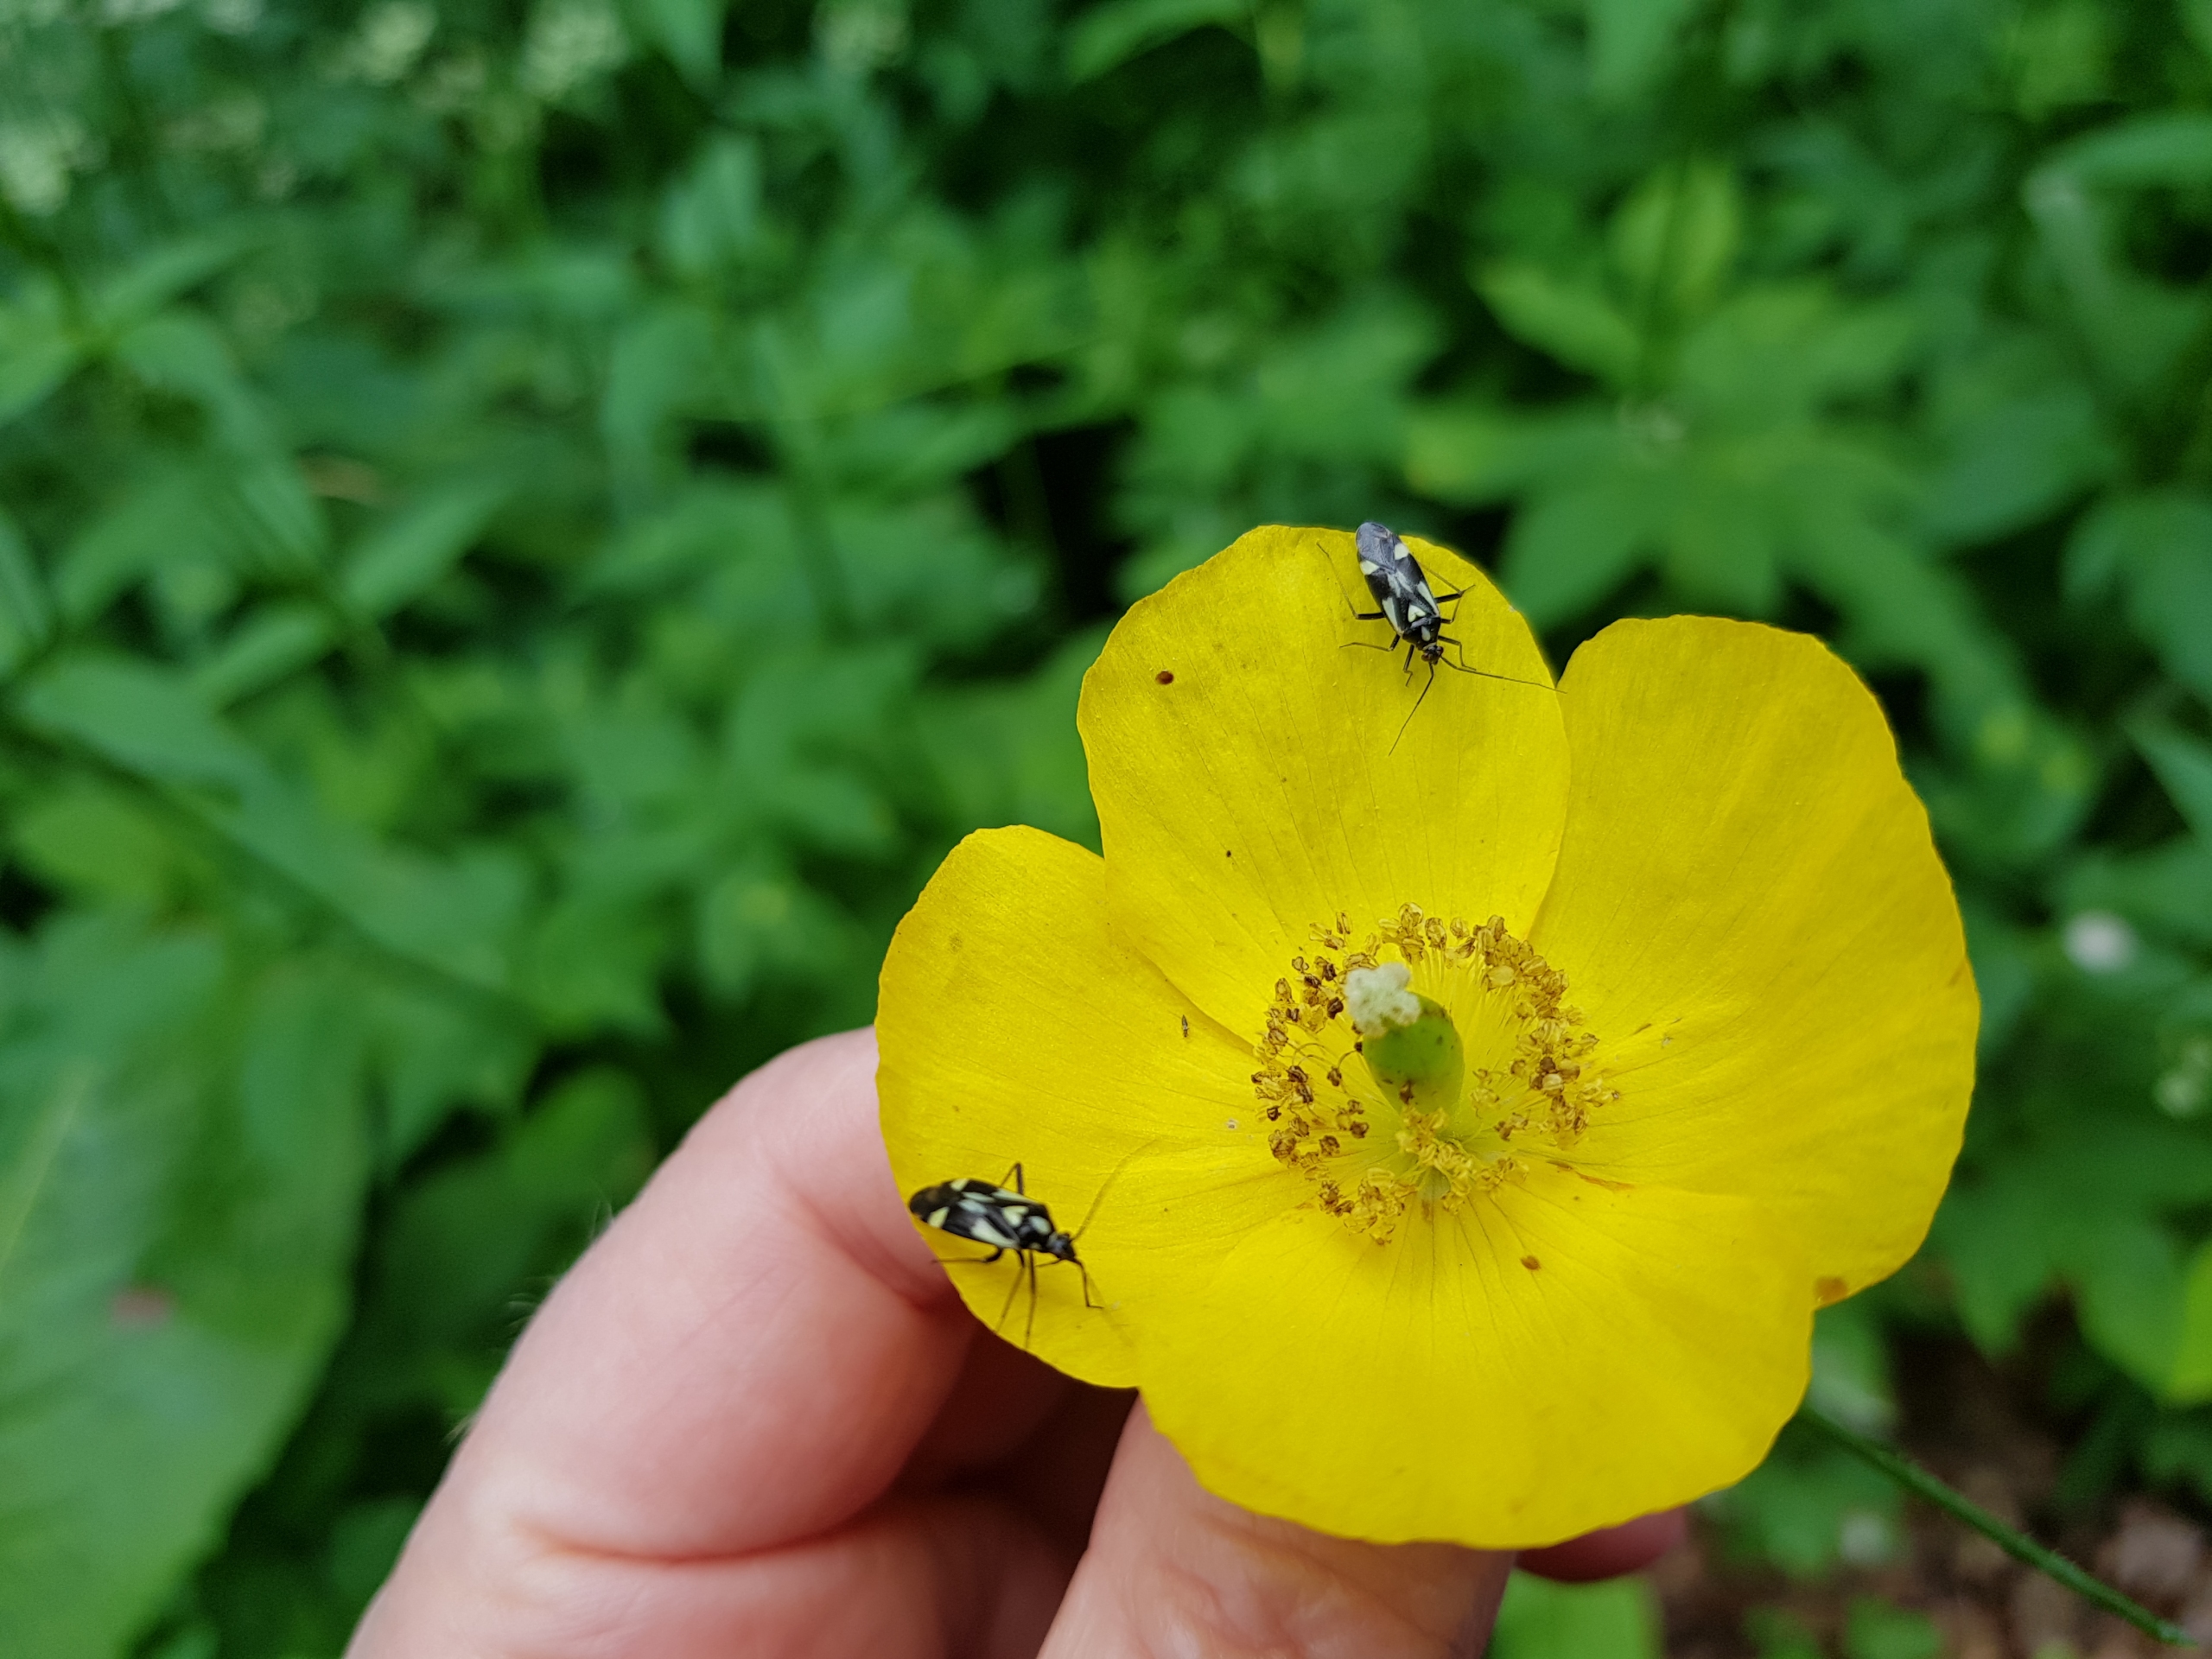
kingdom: Animalia
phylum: Arthropoda
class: Insecta
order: Hemiptera
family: Miridae
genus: Grypocoris
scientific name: Grypocoris sexguttatus
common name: Seksplettet blomstertæge
